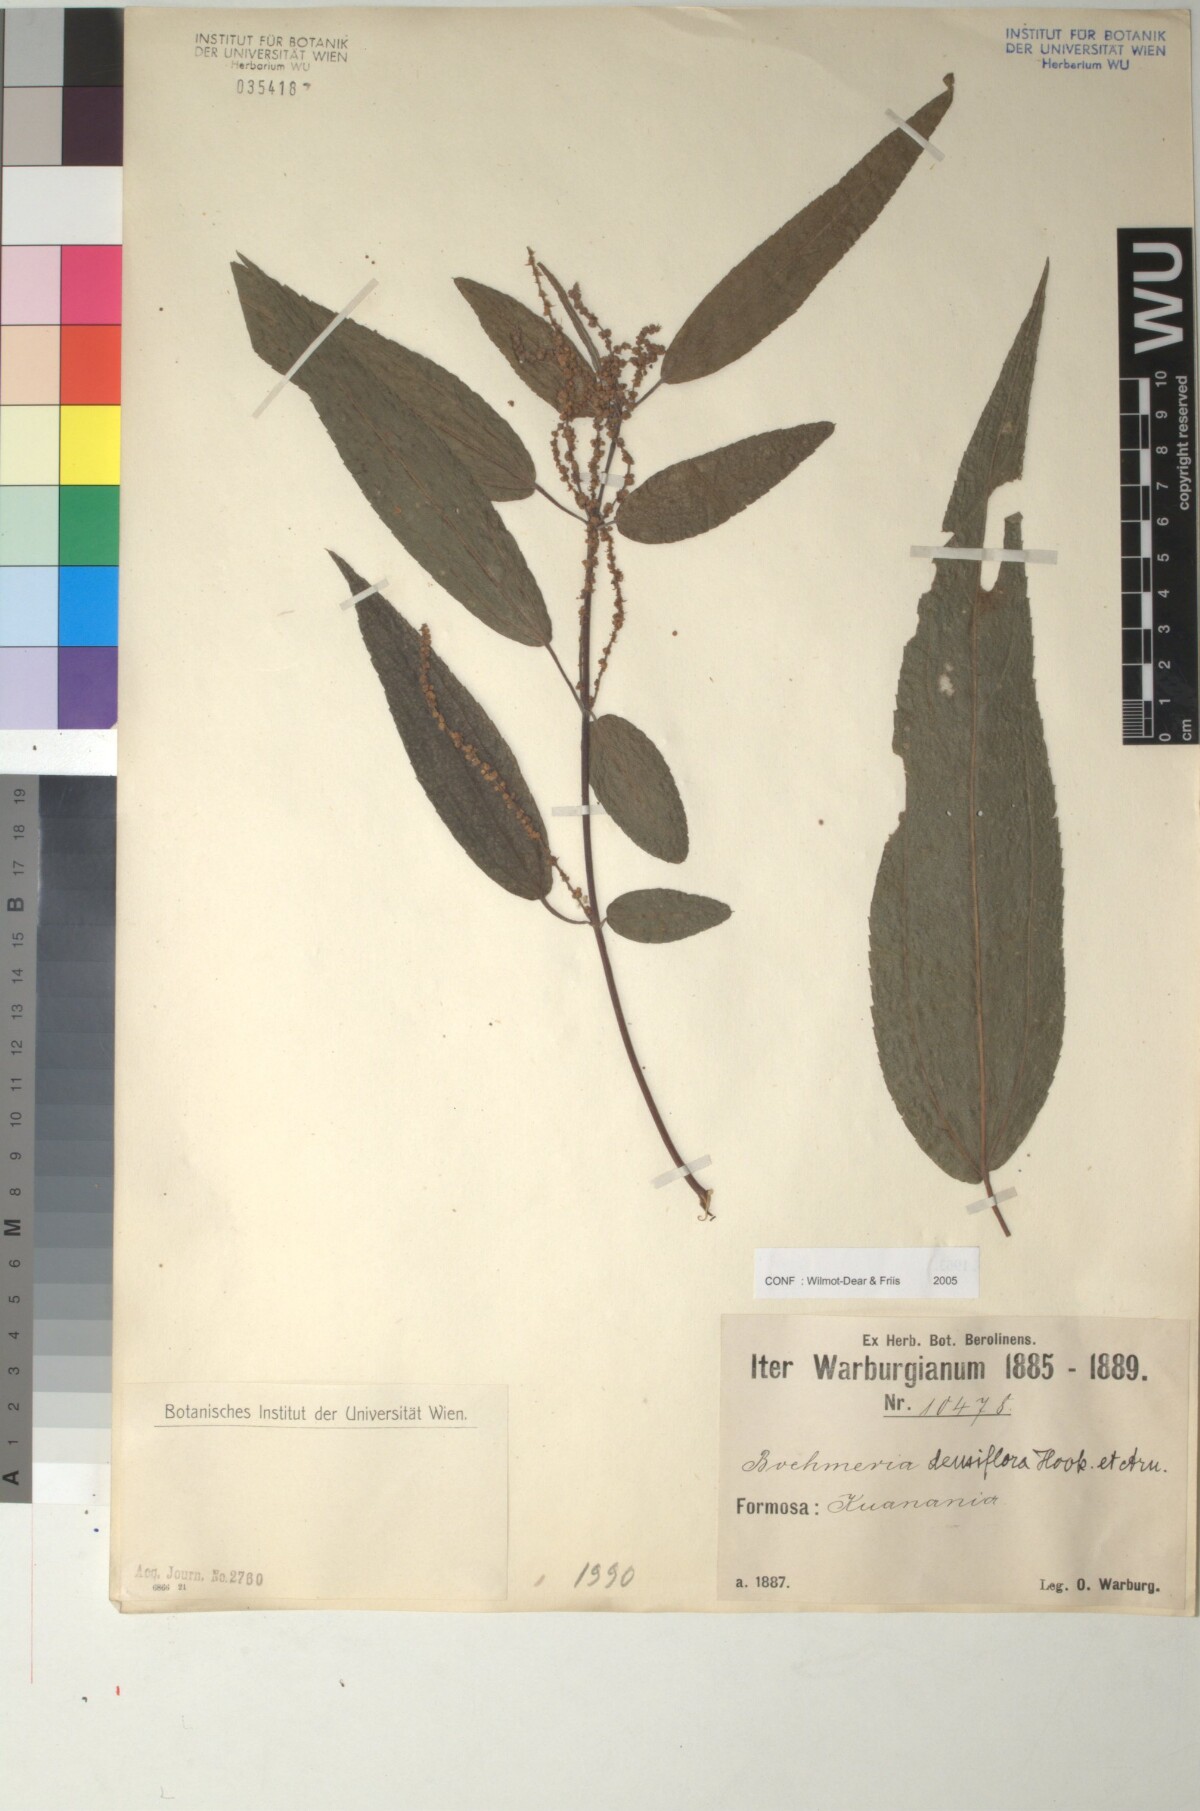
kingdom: Plantae
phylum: Tracheophyta
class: Magnoliopsida
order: Rosales
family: Urticaceae
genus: Boehmeria
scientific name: Boehmeria densiflora
